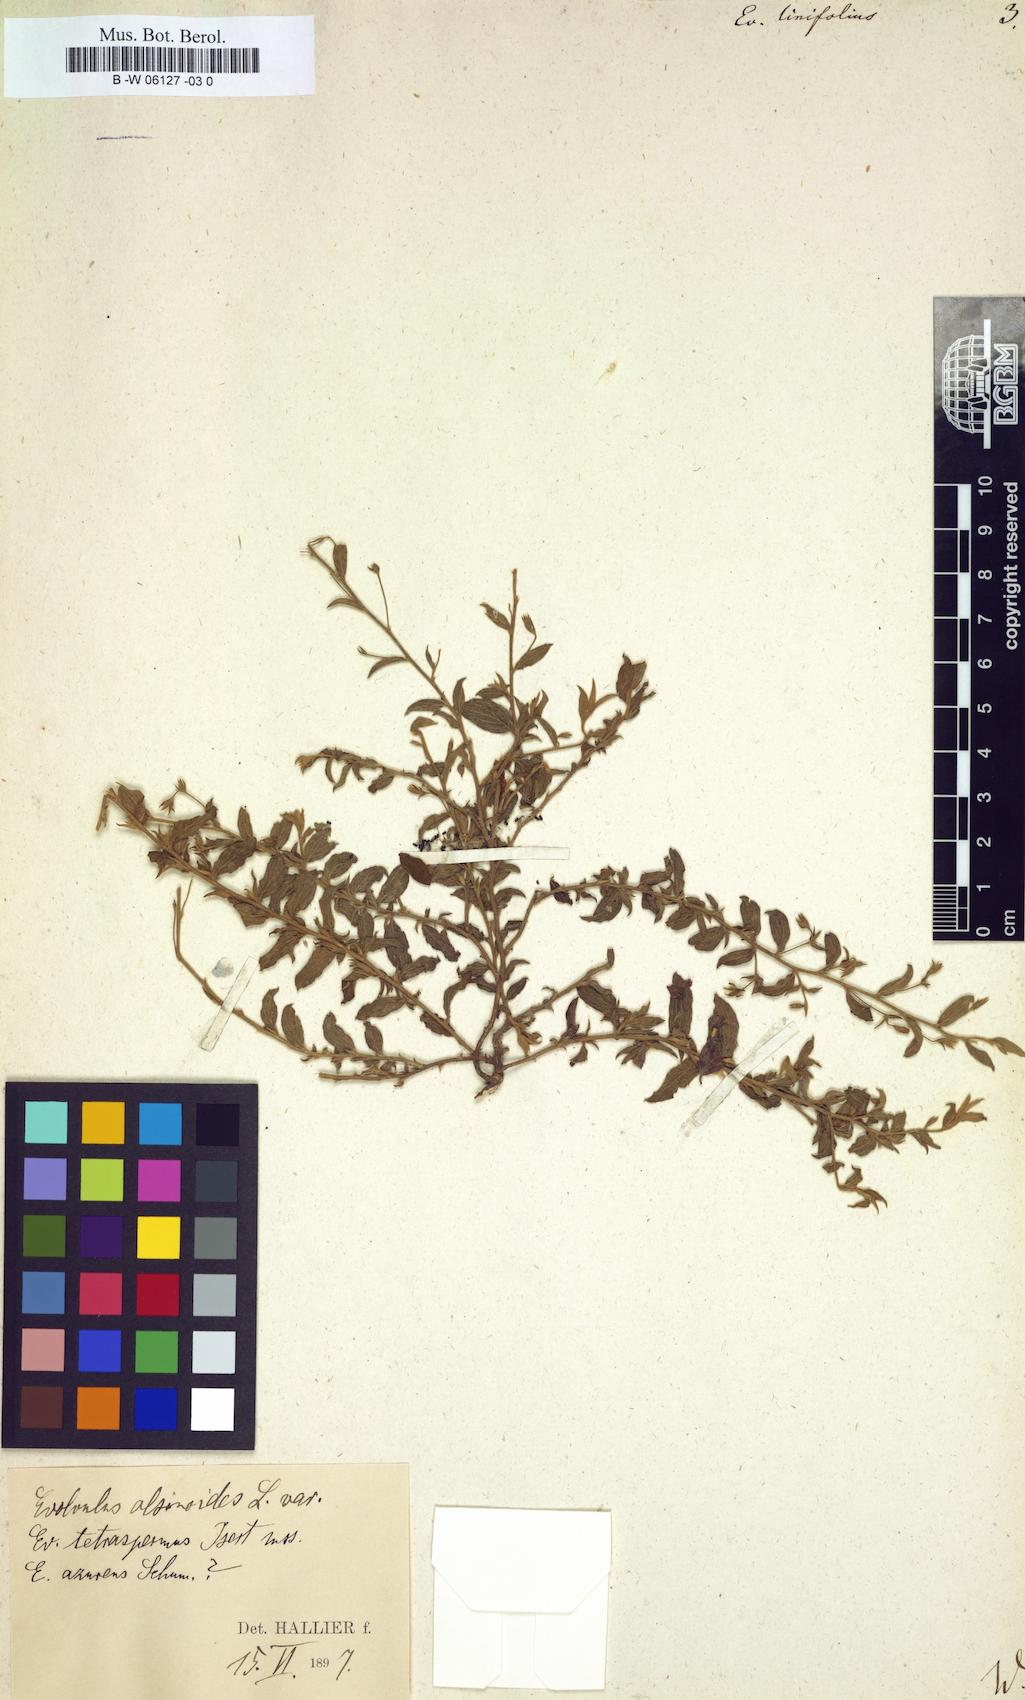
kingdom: Plantae
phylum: Tracheophyta
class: Magnoliopsida
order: Solanales
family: Convolvulaceae
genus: Evolvulus
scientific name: Evolvulus
